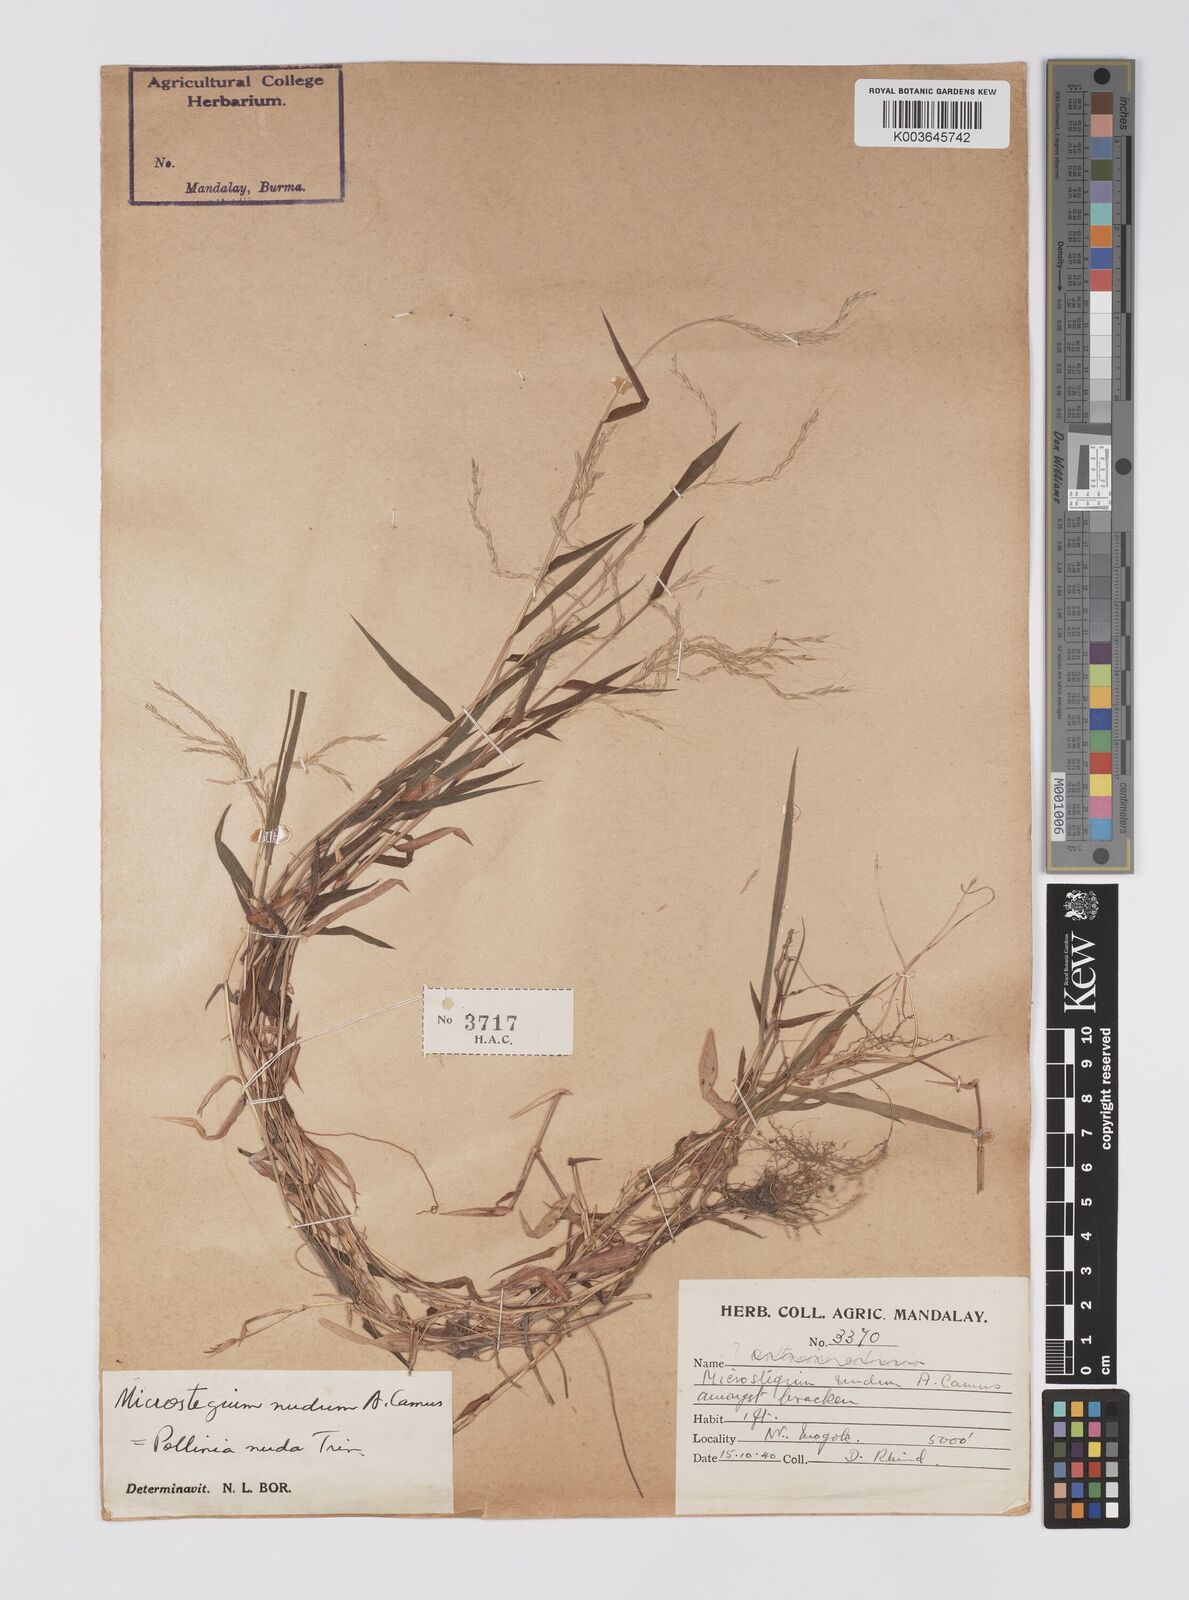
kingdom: Plantae
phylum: Tracheophyta
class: Liliopsida
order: Poales
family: Poaceae
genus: Microstegium
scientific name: Microstegium nudum
